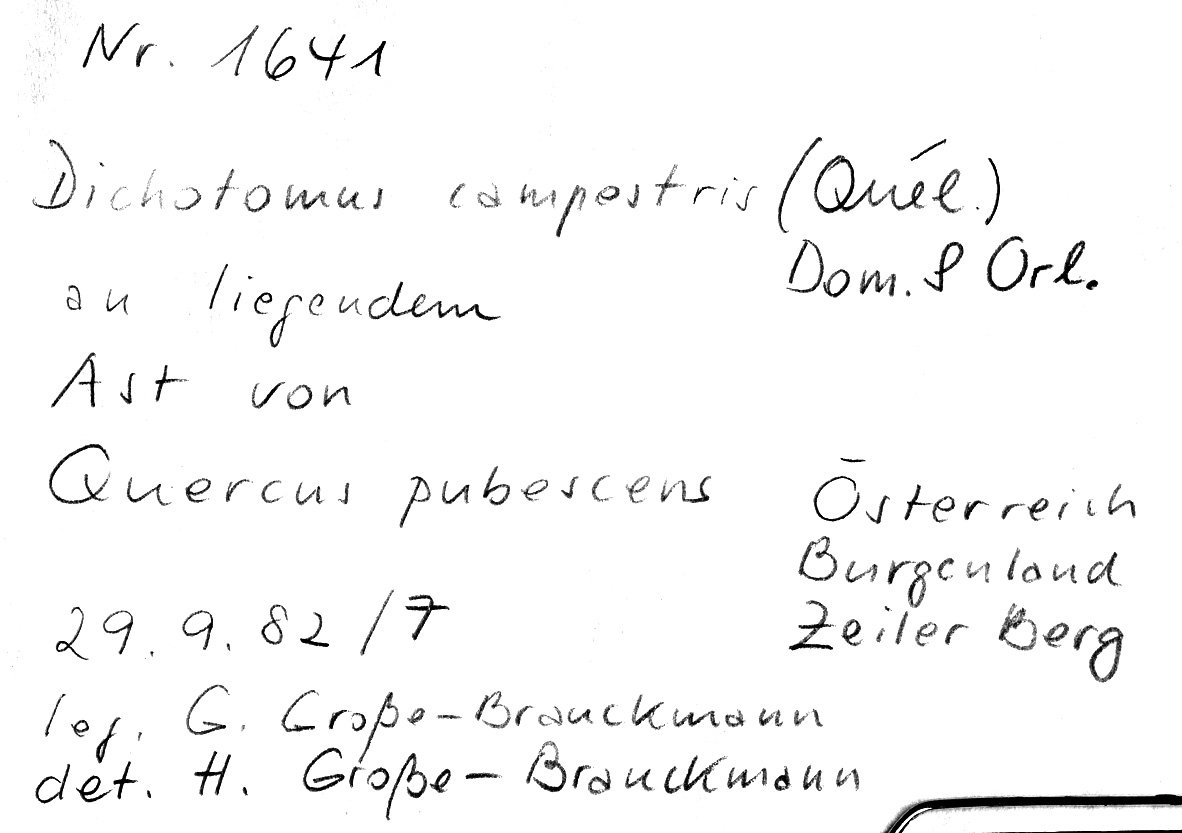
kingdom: Fungi
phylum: Basidiomycota
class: Agaricomycetes
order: Polyporales
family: Polyporaceae
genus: Szczepkamyces
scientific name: Szczepkamyces campestris
